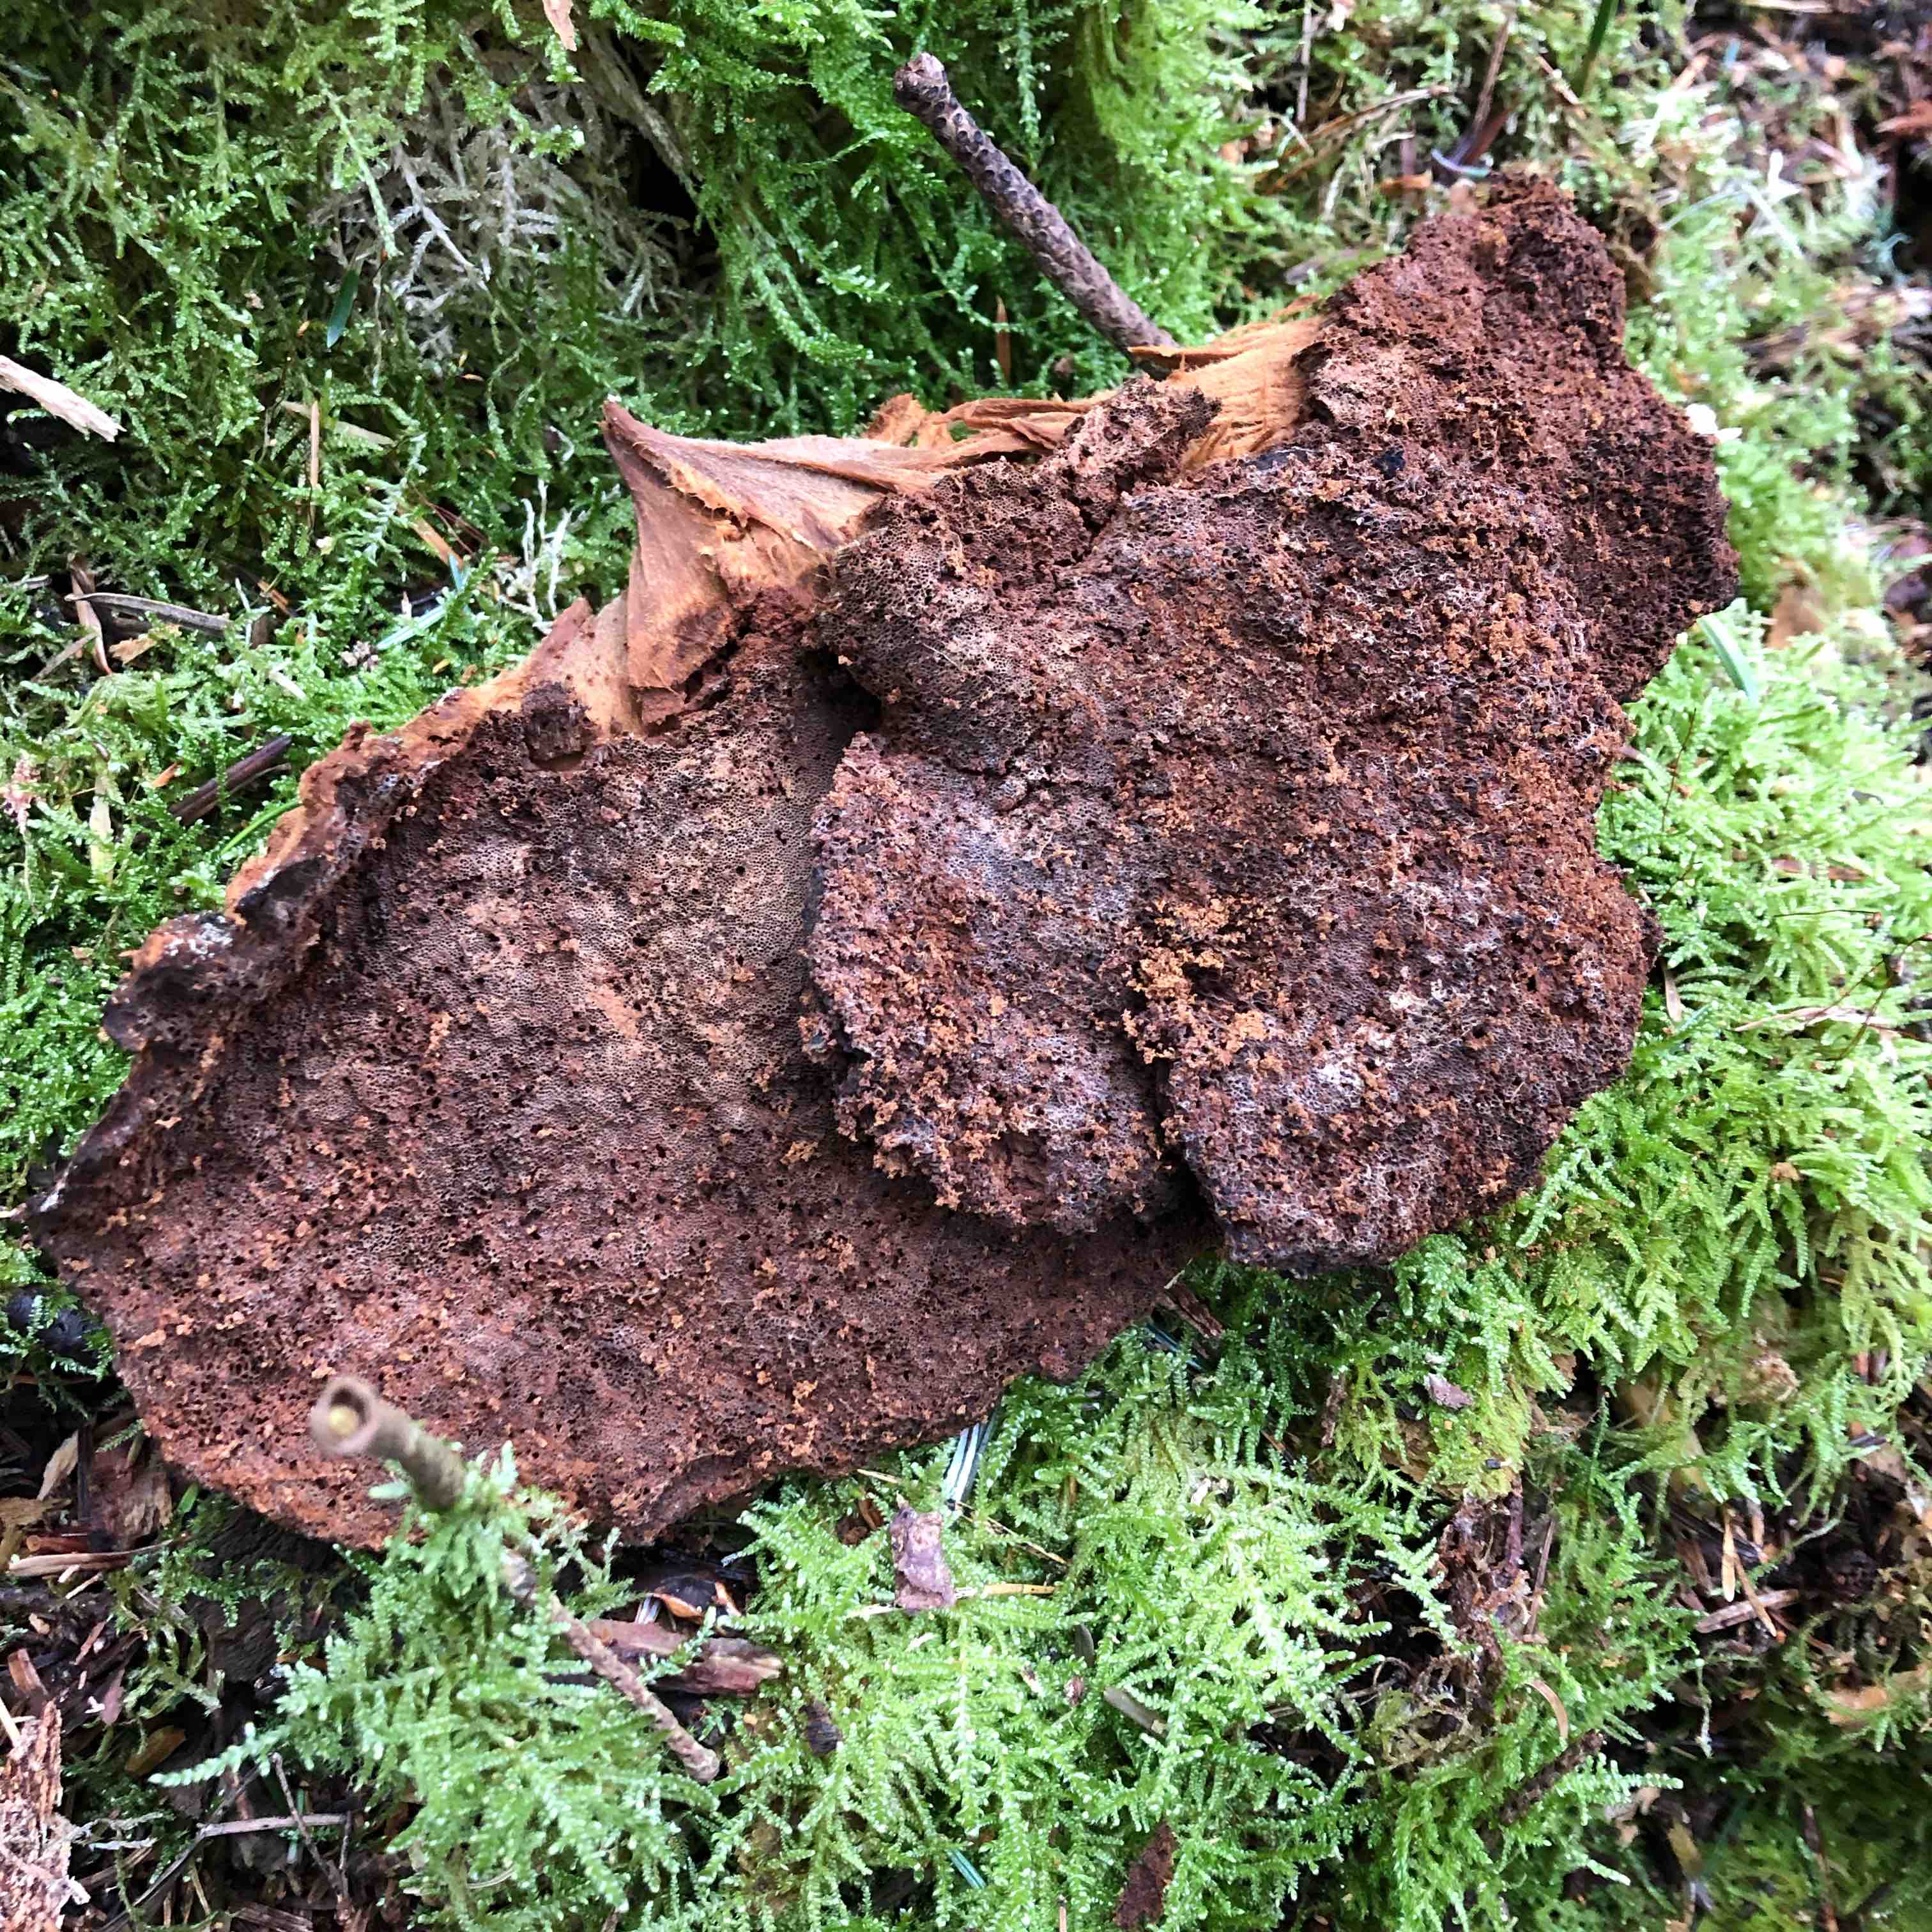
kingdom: Fungi
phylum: Basidiomycota
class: Agaricomycetes
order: Polyporales
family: Ischnodermataceae
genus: Ischnoderma
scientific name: Ischnoderma benzoinum
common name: gran-tjæreporesvamp
